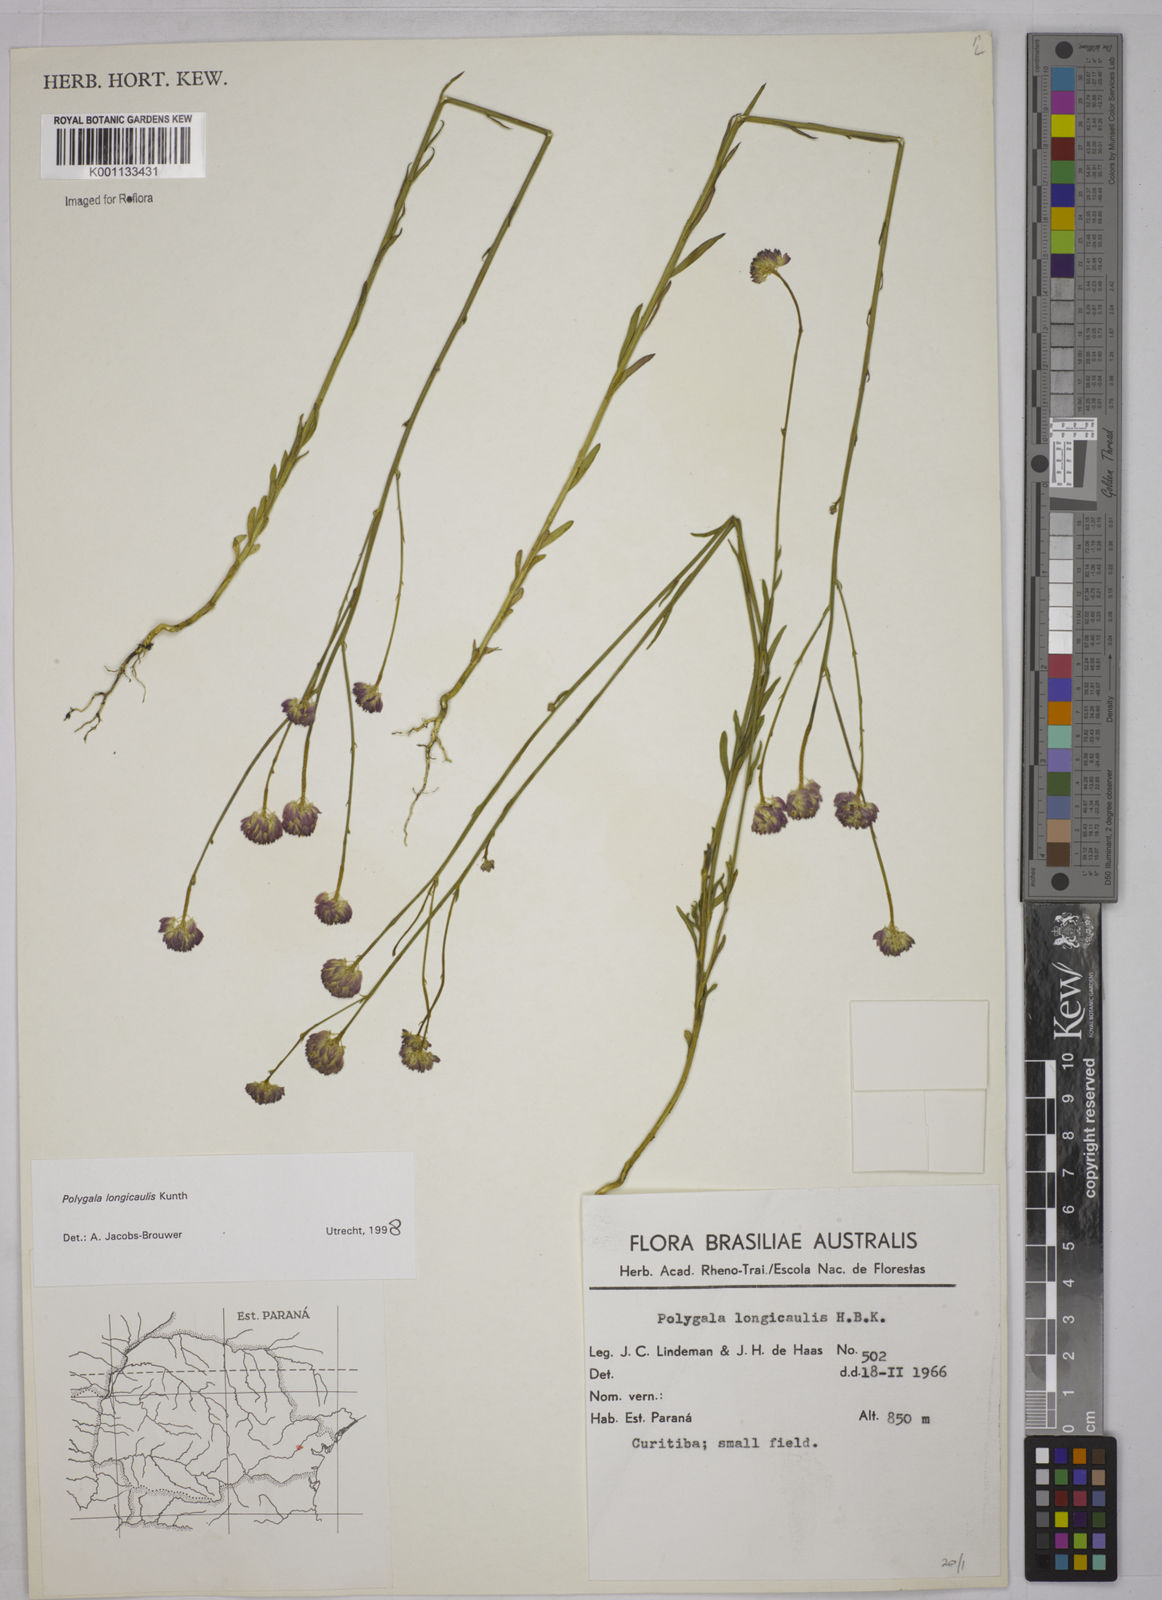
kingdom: Plantae
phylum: Tracheophyta
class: Magnoliopsida
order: Fabales
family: Polygalaceae
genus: Polygala
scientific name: Polygala longicaulis
